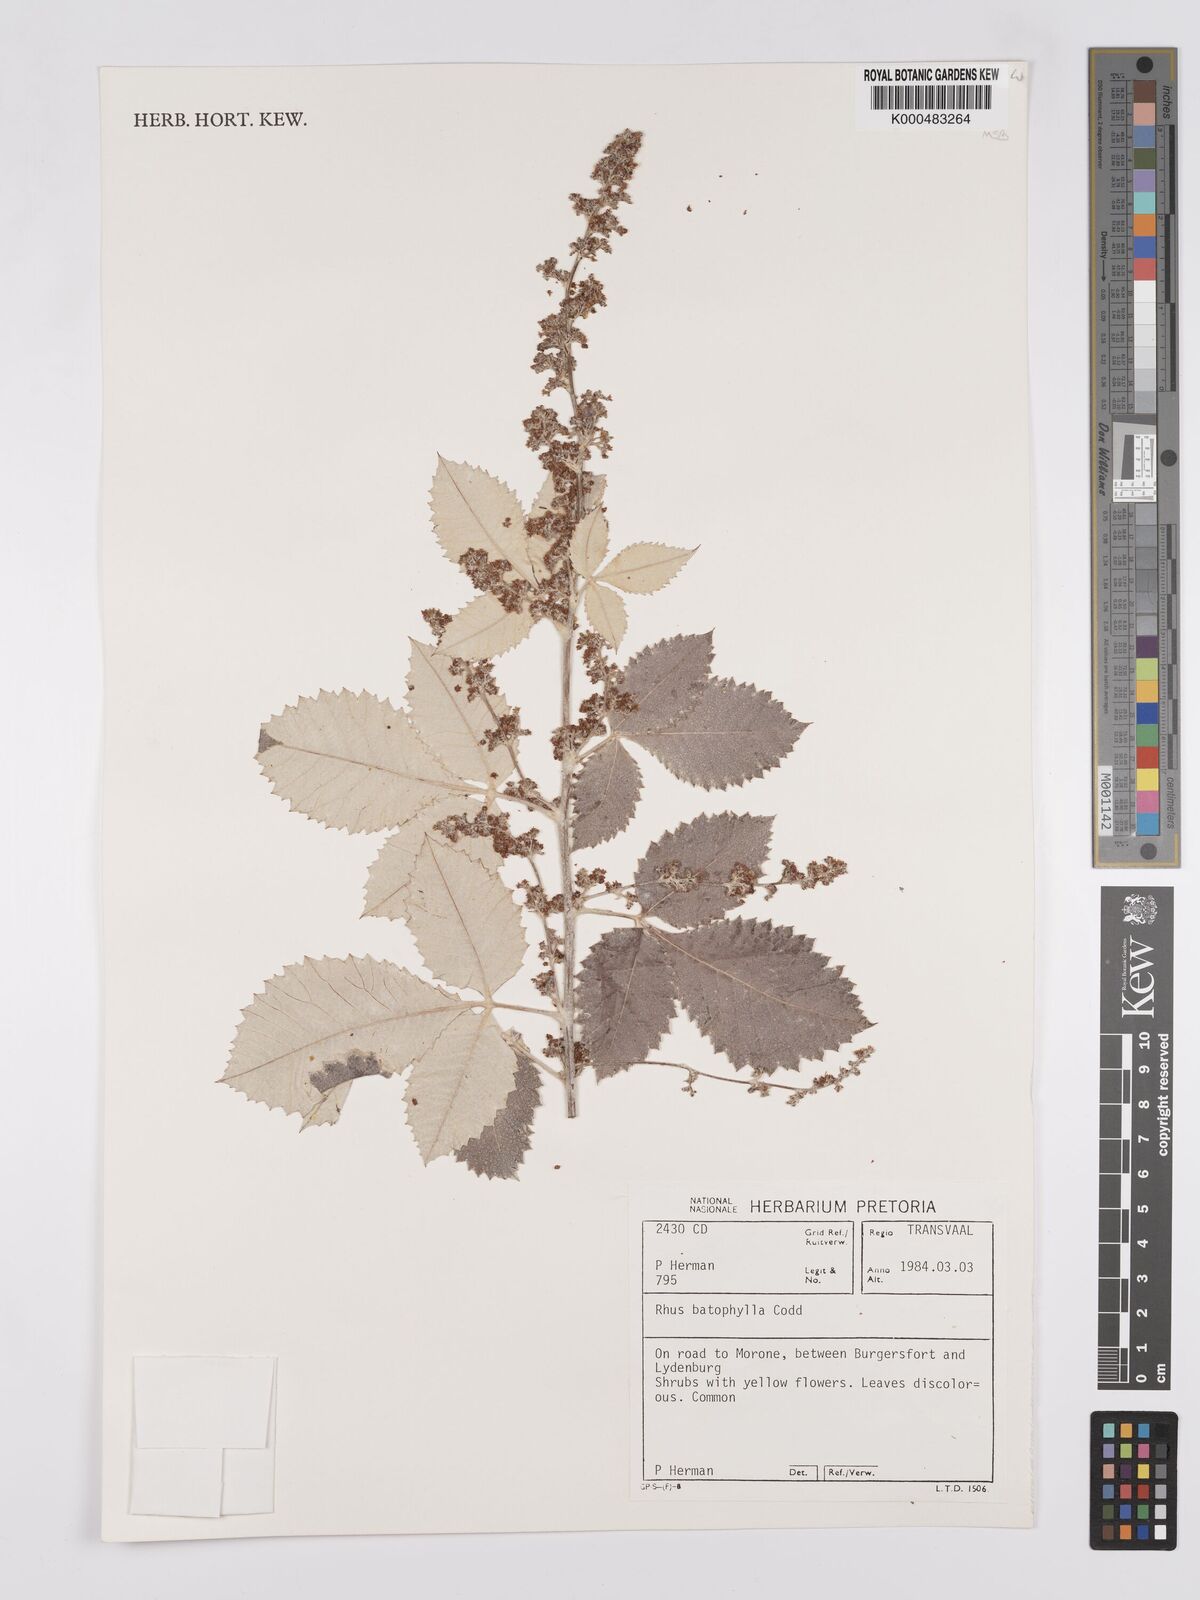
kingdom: Plantae
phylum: Tracheophyta
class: Magnoliopsida
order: Sapindales
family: Anacardiaceae
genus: Searsia
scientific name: Searsia batophylla
